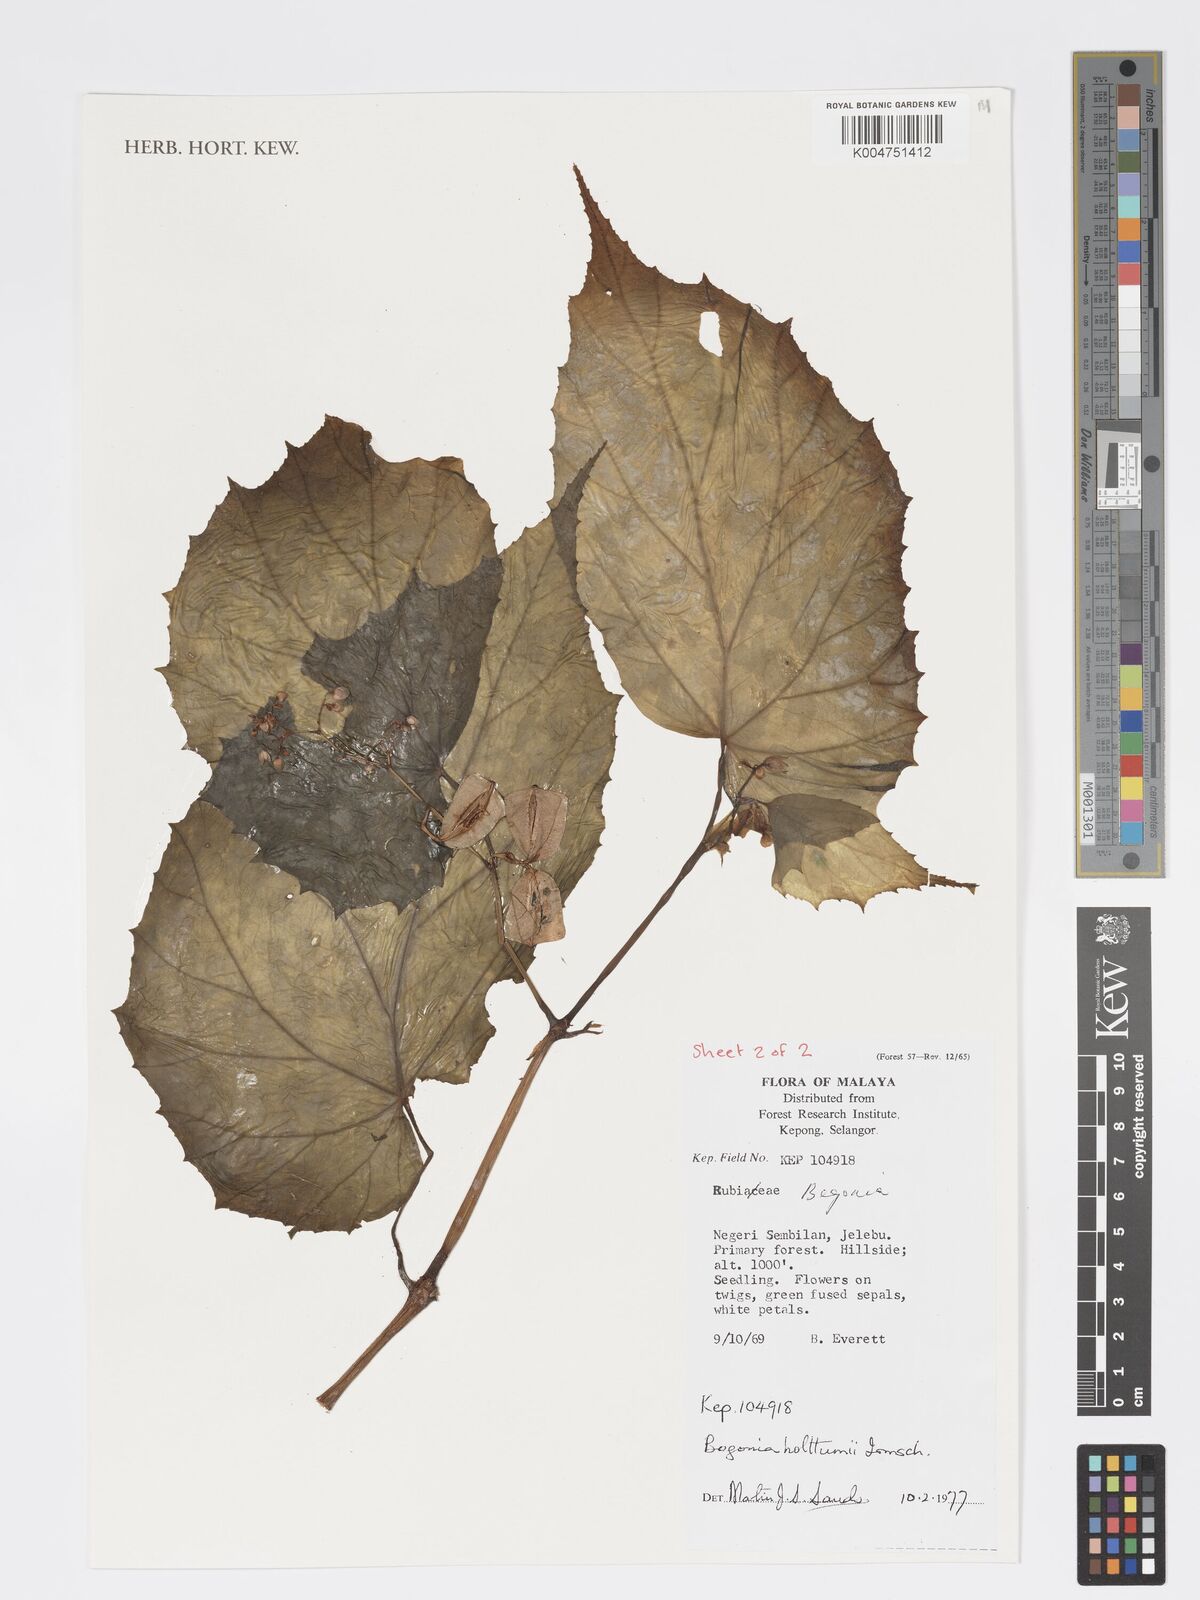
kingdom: Plantae
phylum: Tracheophyta
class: Magnoliopsida
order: Cucurbitales
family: Begoniaceae
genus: Begonia
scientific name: Begonia holttumii
